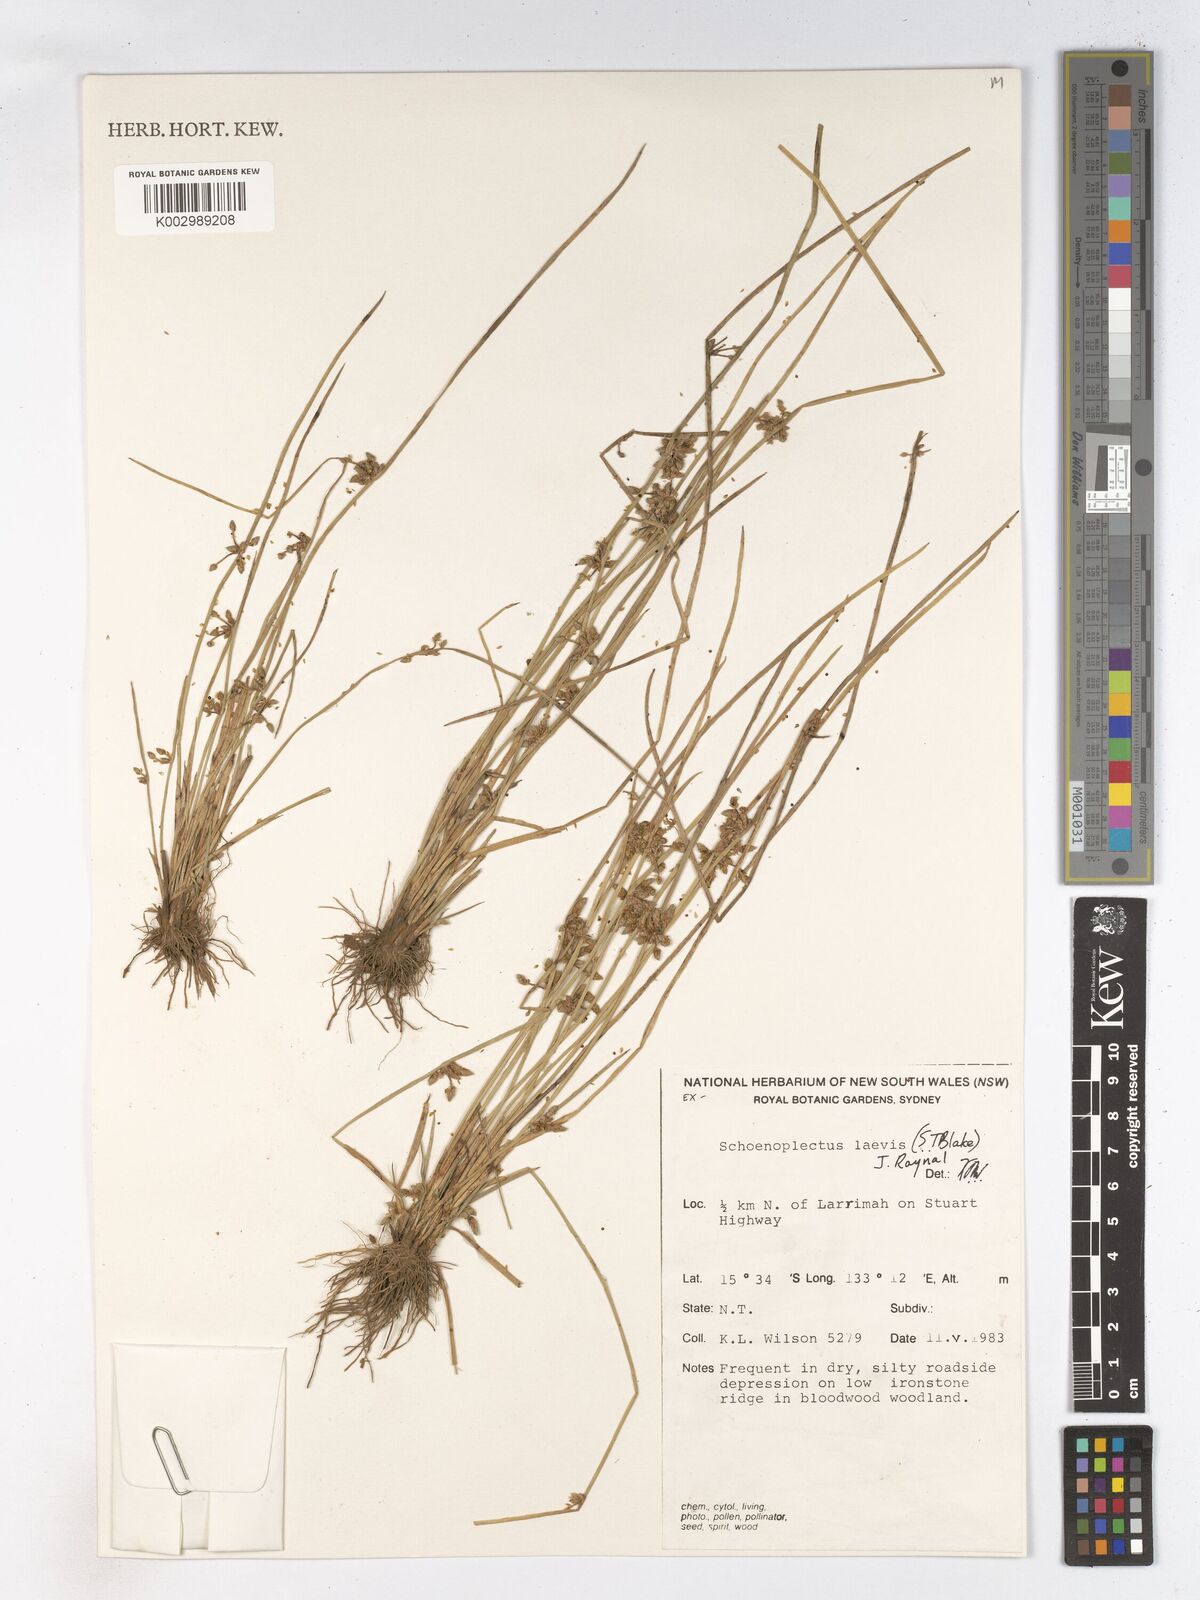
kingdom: Plantae
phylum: Tracheophyta
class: Liliopsida
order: Poales
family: Cyperaceae
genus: Schoenoplectiella
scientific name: Schoenoplectiella laevis
